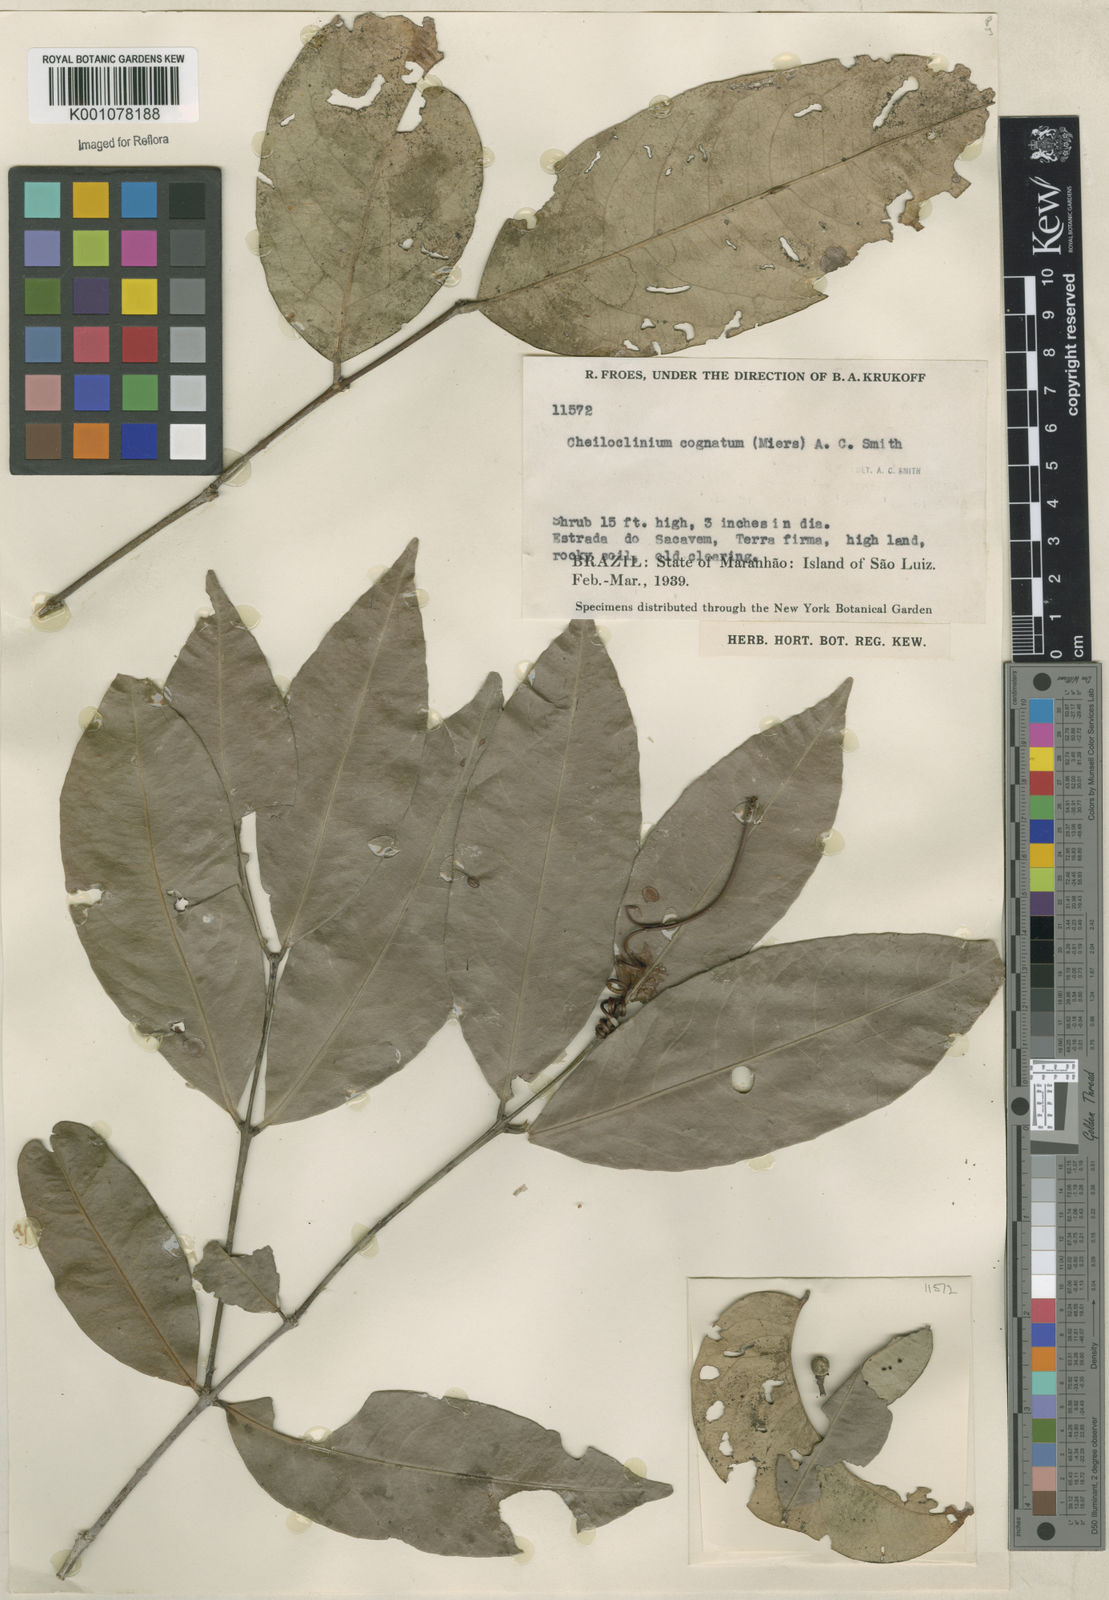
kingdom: Plantae
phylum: Tracheophyta
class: Magnoliopsida
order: Celastrales
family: Celastraceae
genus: Cheiloclinium
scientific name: Cheiloclinium cognatum
